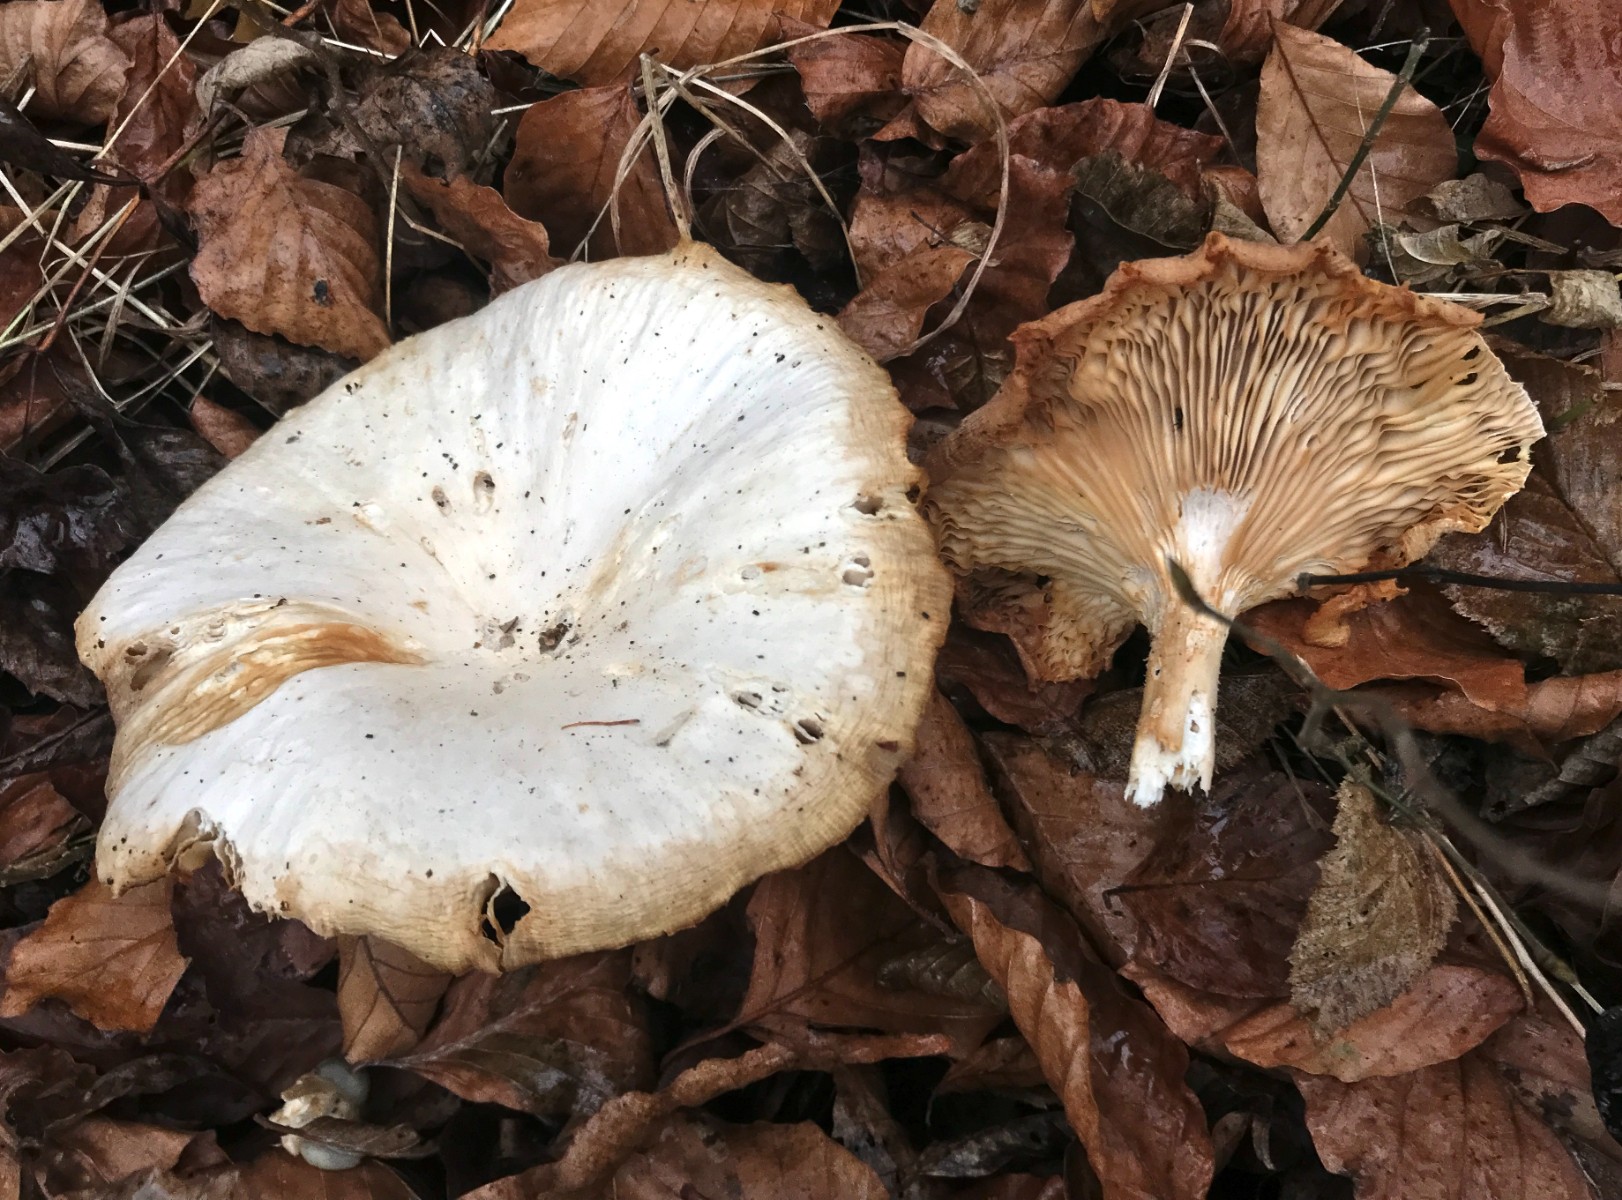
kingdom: Fungi
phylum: Basidiomycota
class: Agaricomycetes
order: Agaricales
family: Tricholomataceae
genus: Infundibulicybe
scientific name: Infundibulicybe geotropa
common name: stor tragthat
